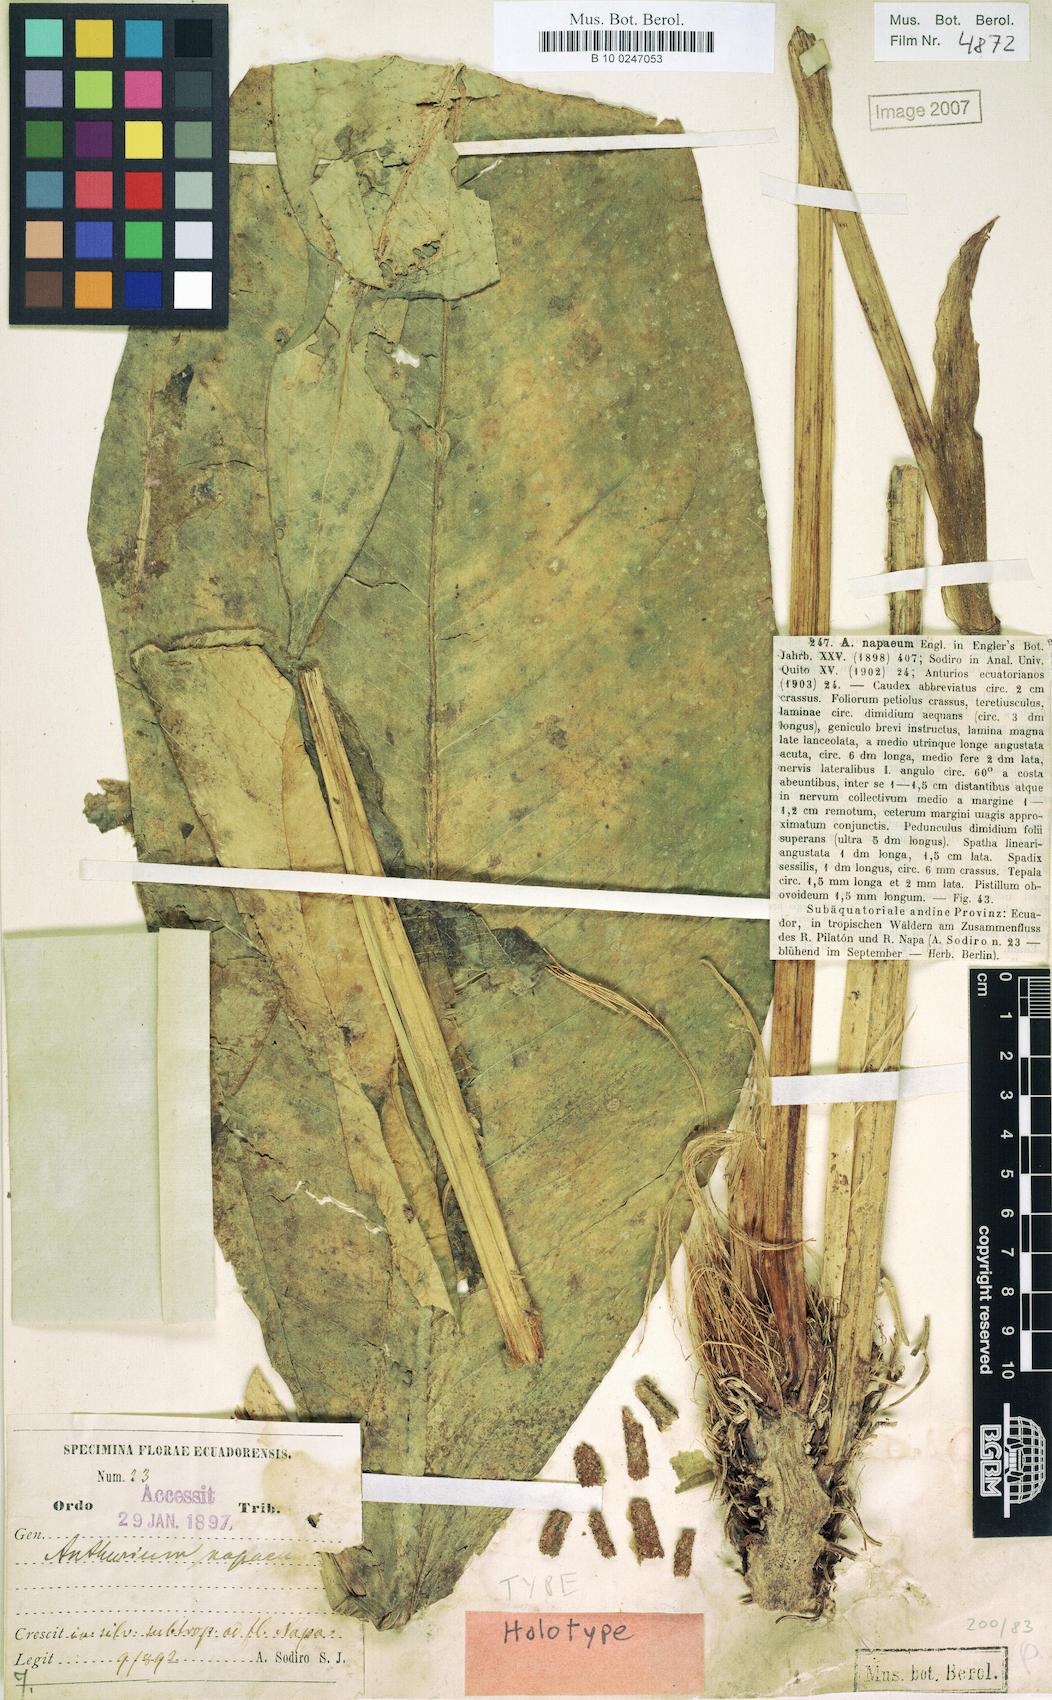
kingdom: Plantae
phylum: Tracheophyta
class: Liliopsida
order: Alismatales
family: Araceae
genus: Anthurium
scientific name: Anthurium napaeum
